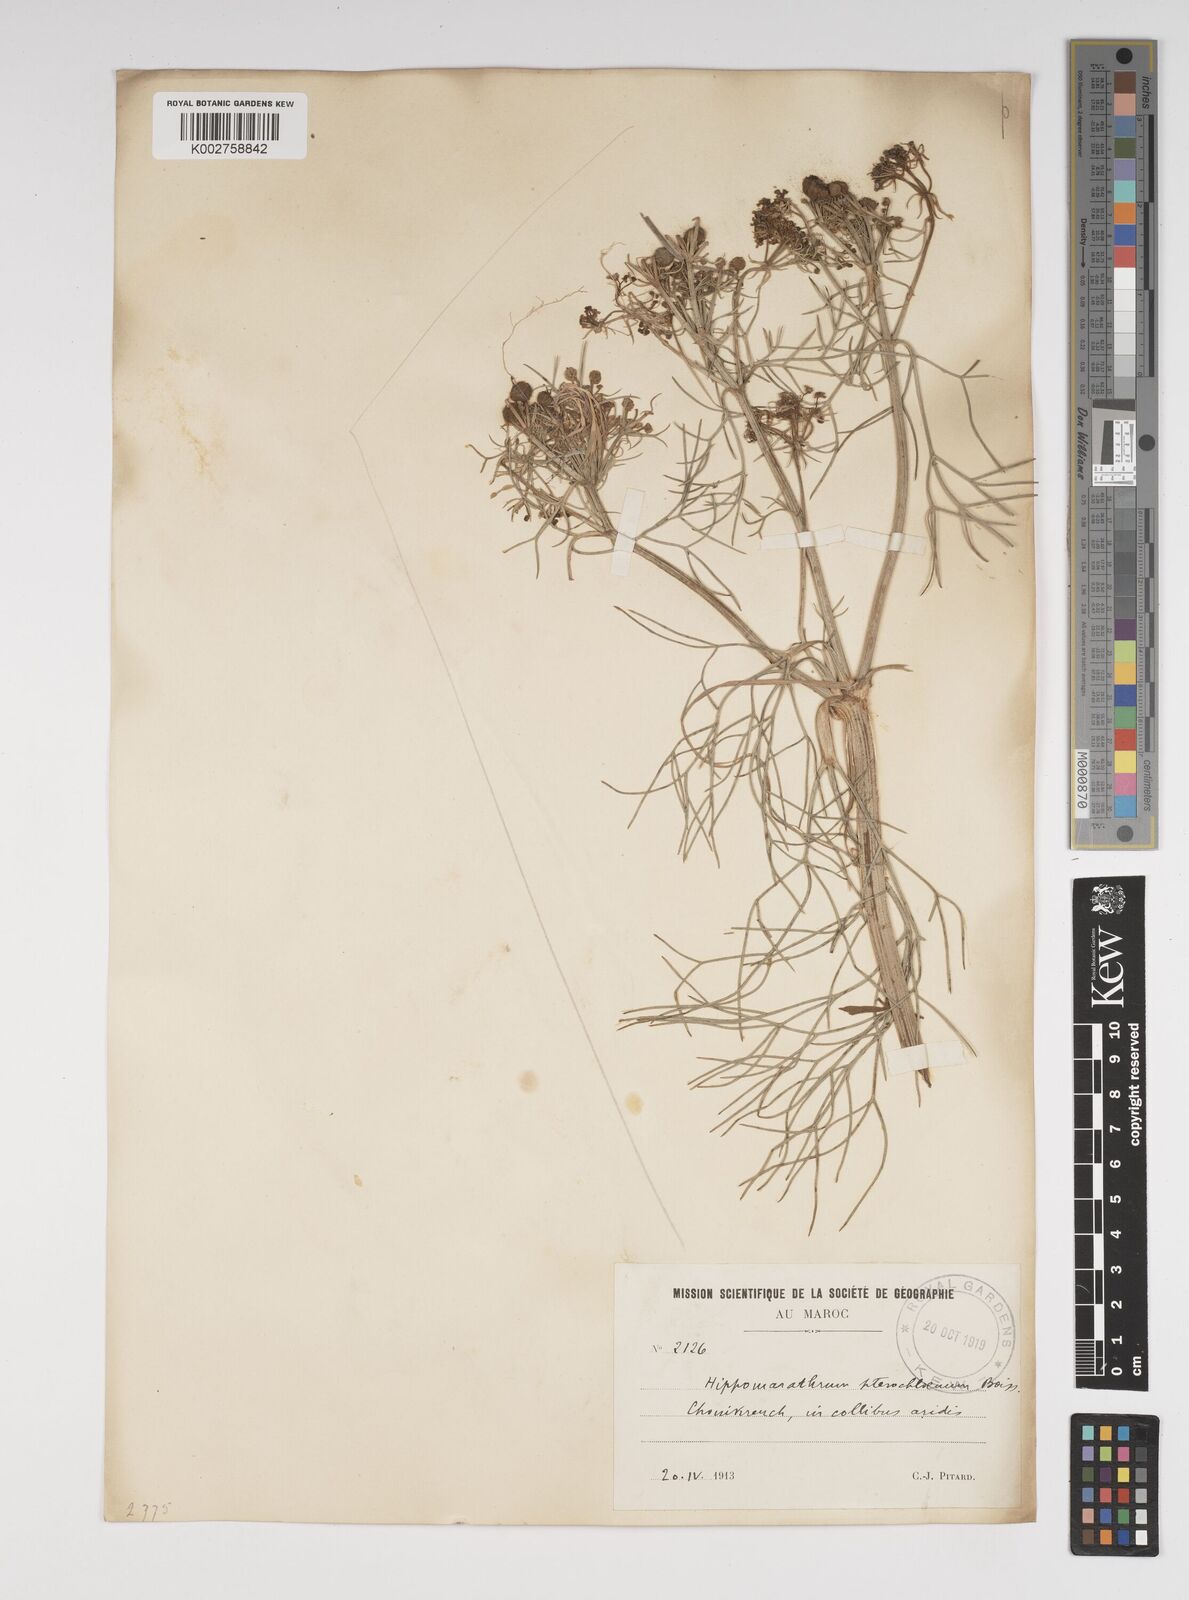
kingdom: Plantae
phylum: Tracheophyta
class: Magnoliopsida
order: Apiales
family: Apiaceae
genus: Cachrys
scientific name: Cachrys sicula
